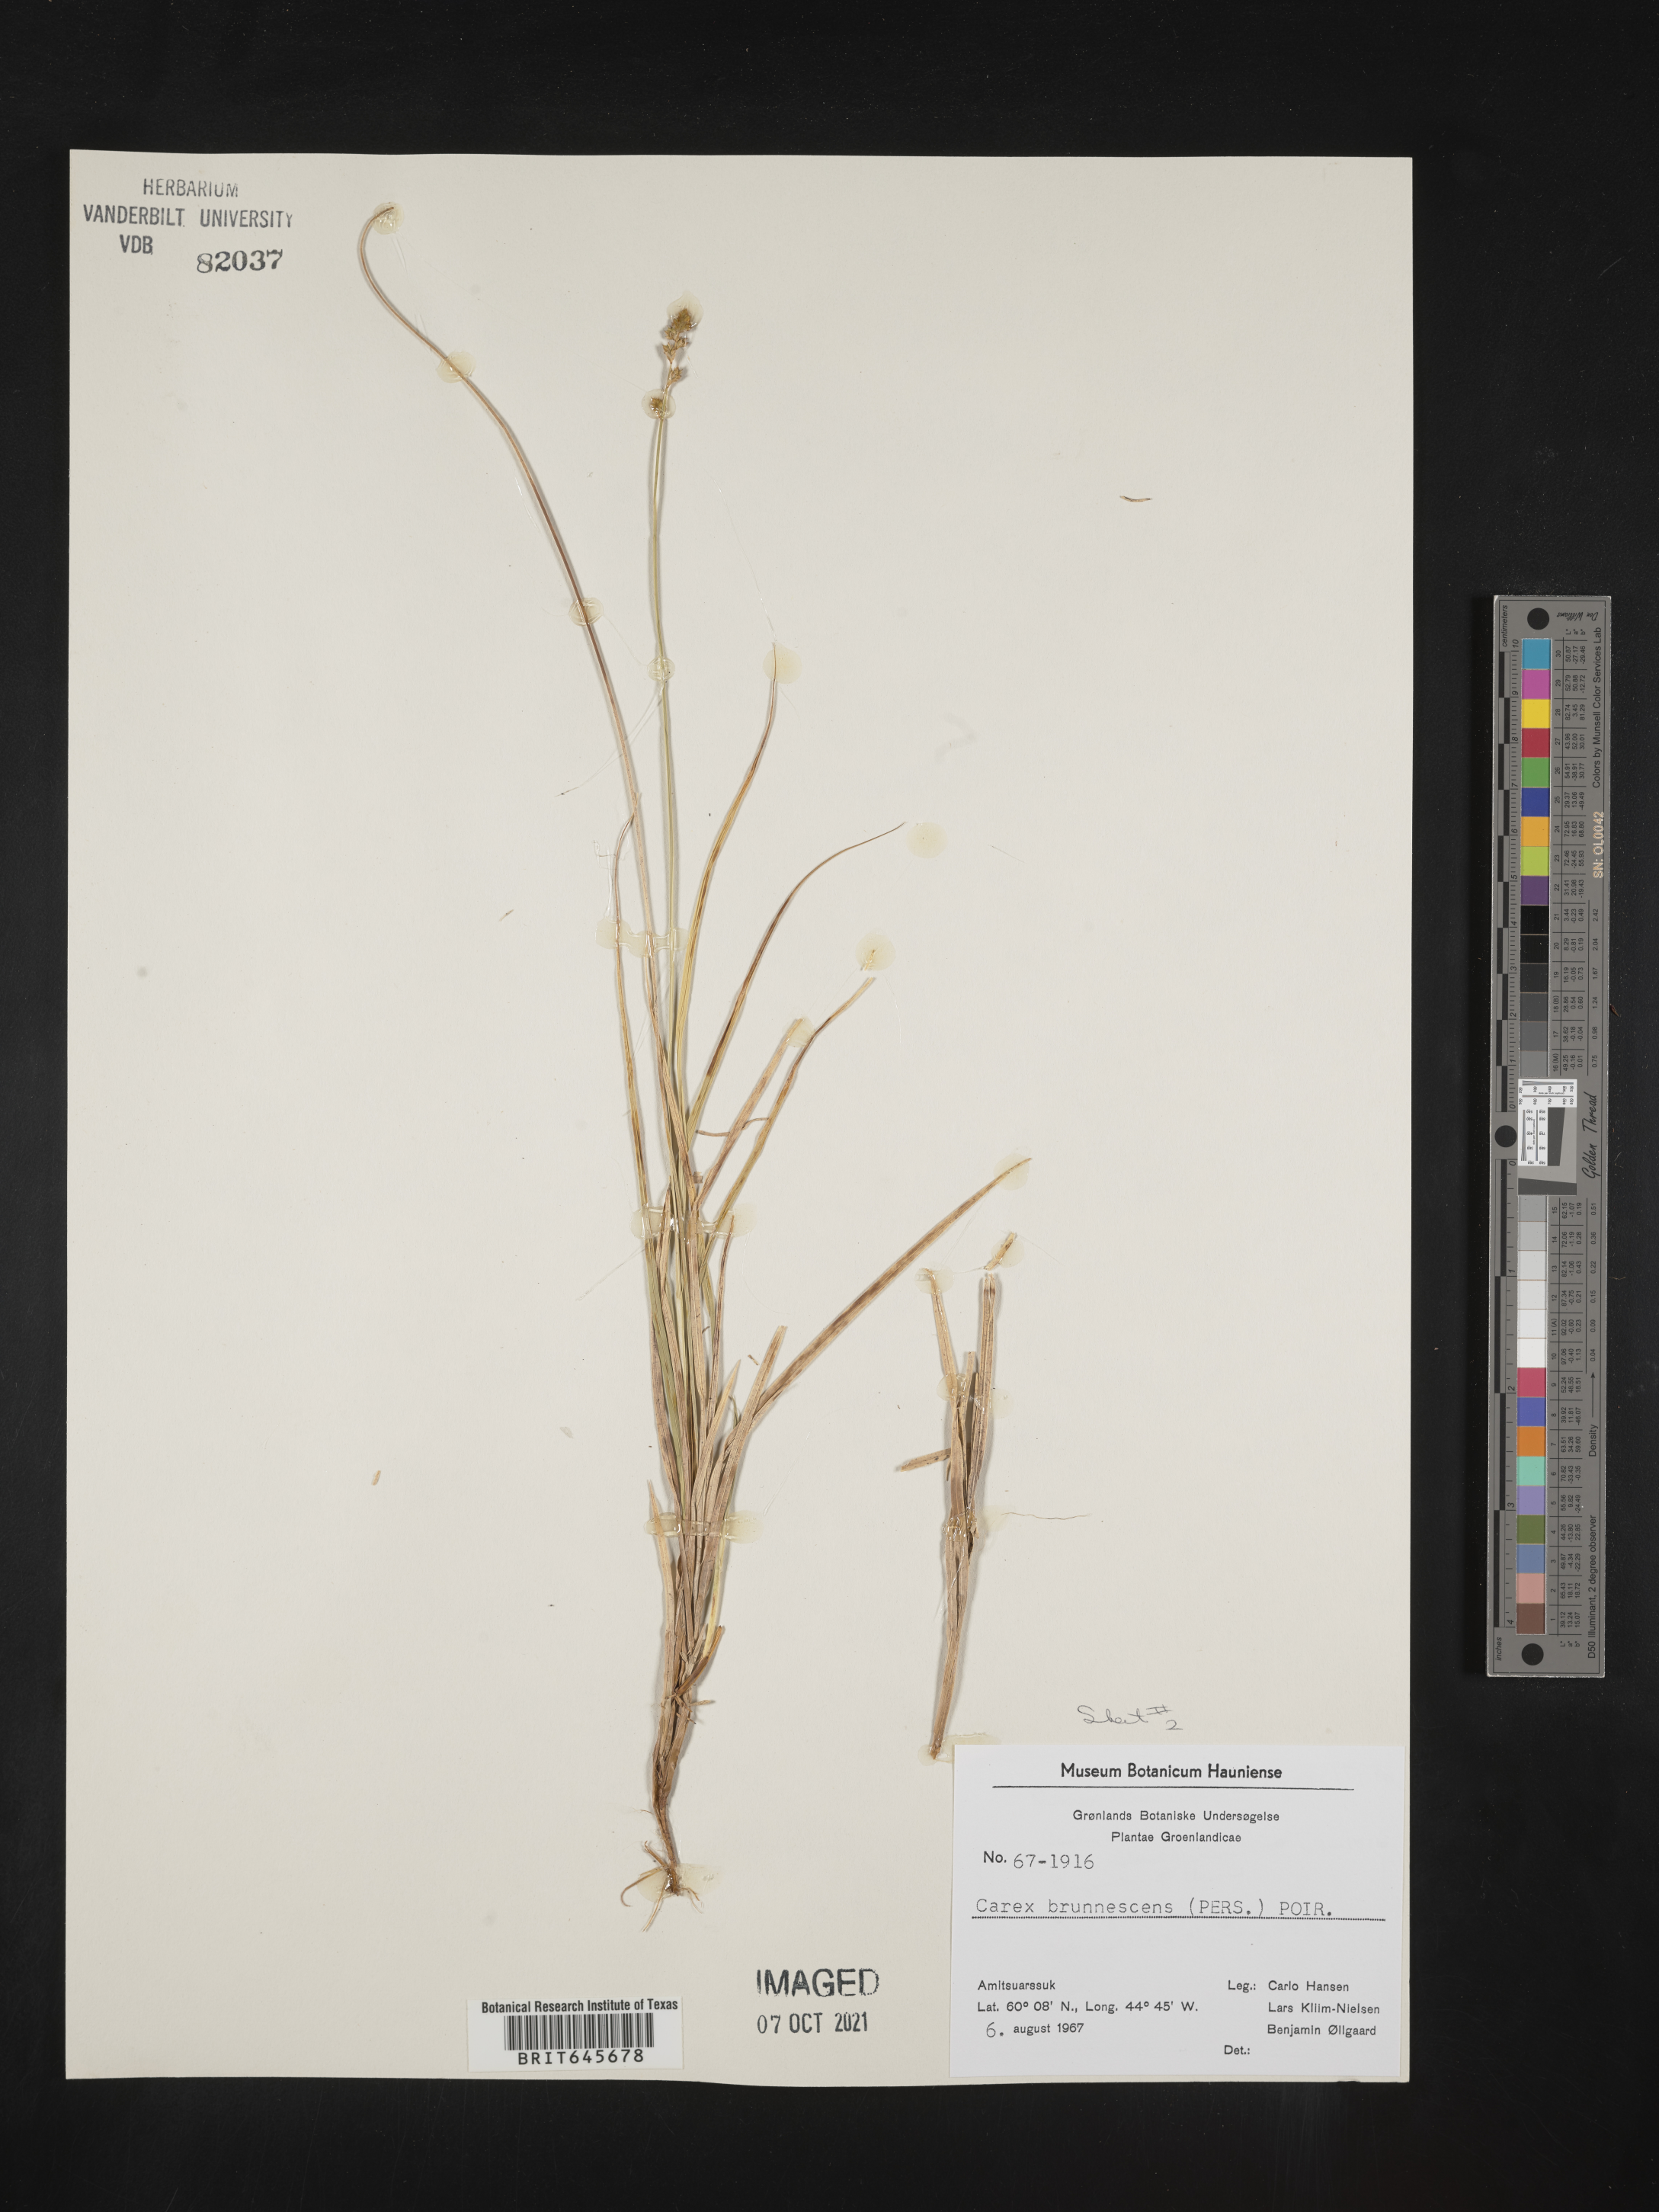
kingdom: Plantae
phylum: Tracheophyta
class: Liliopsida
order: Poales
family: Cyperaceae
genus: Carex
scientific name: Carex brunnescens
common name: Brown sedge
